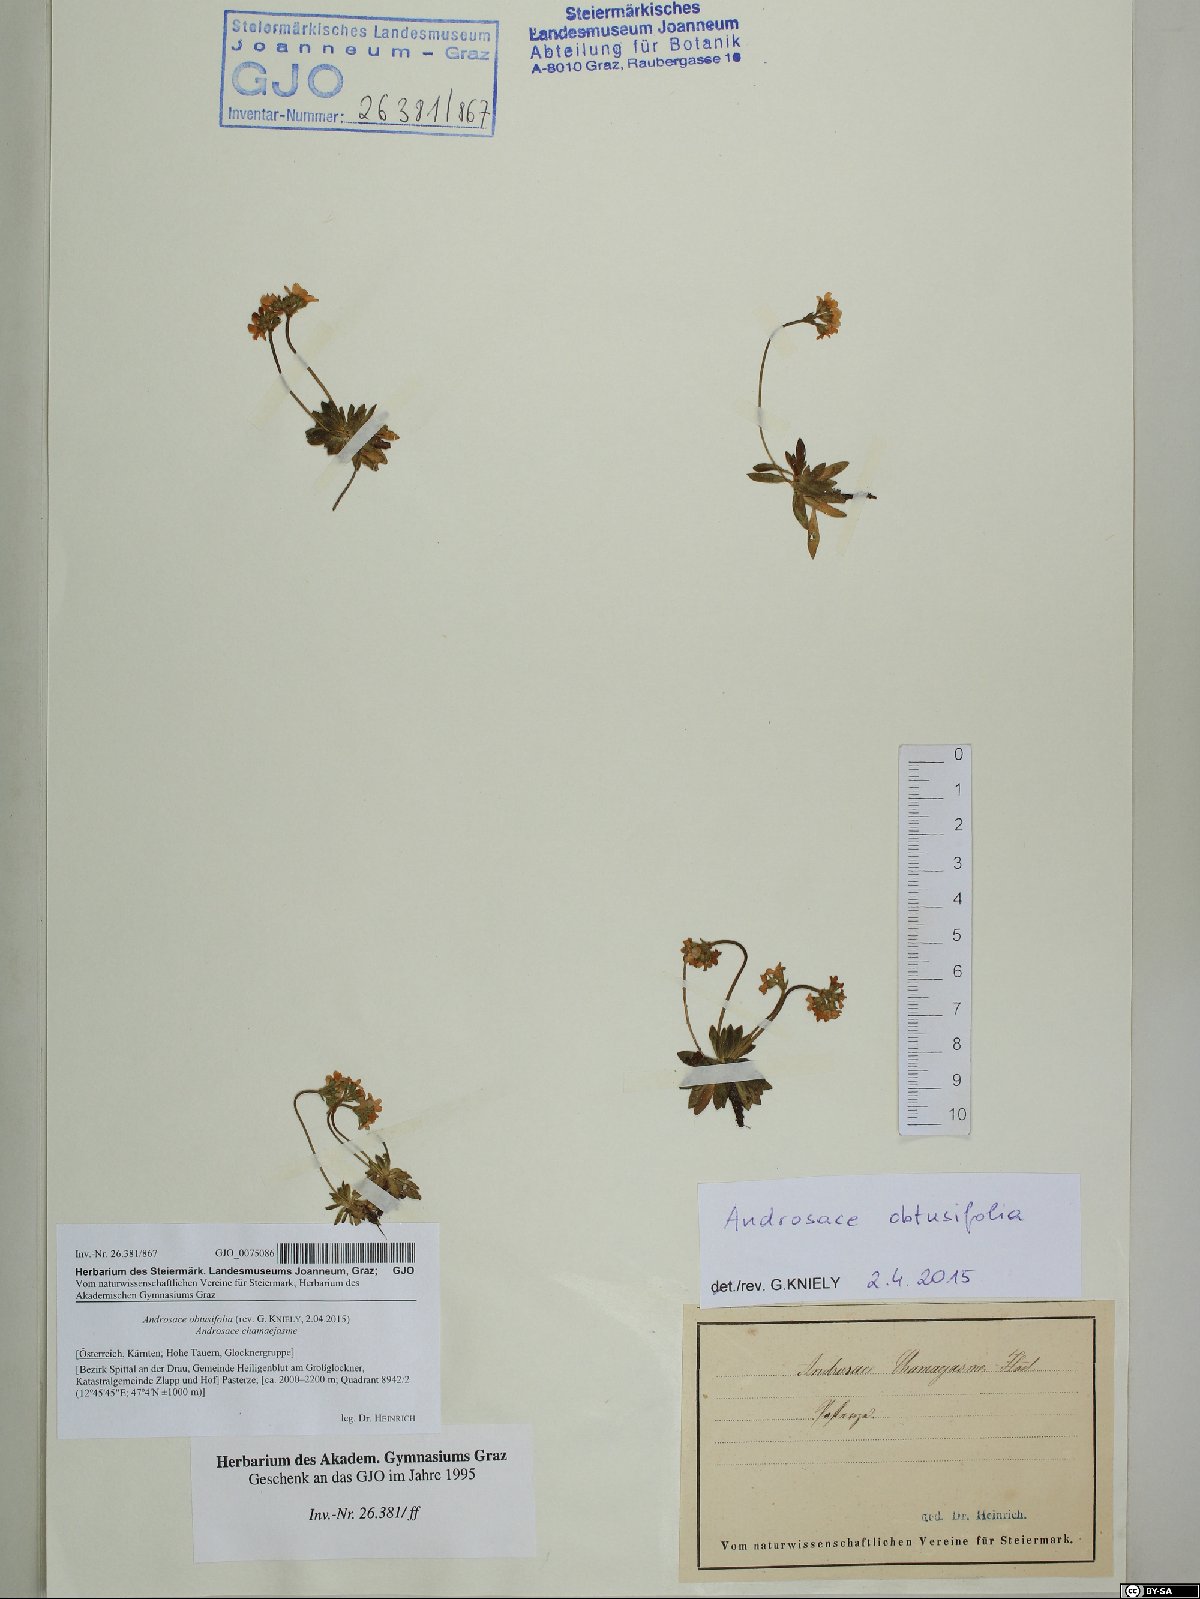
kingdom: Plantae
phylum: Tracheophyta
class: Magnoliopsida
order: Ericales
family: Primulaceae
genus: Androsace
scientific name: Androsace obtusifolia
